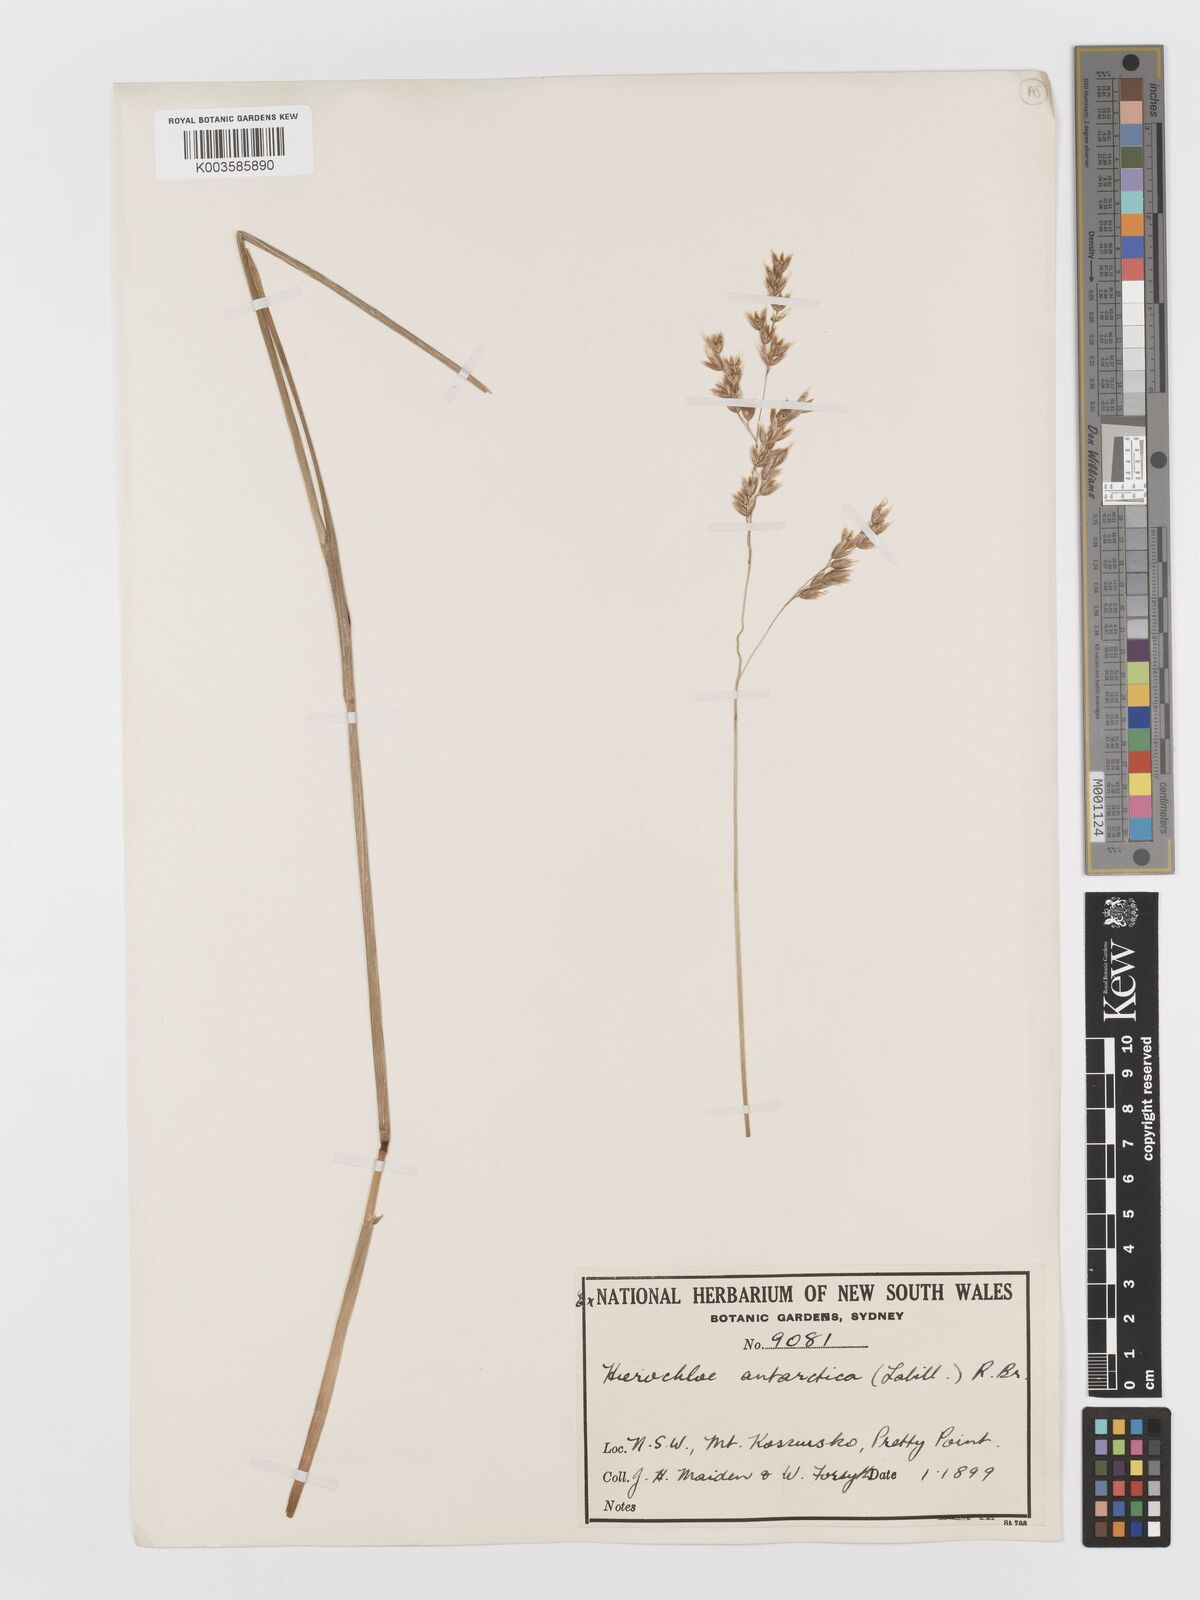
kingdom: Plantae
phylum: Tracheophyta
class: Liliopsida
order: Poales
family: Poaceae
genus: Anthoxanthum
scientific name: Anthoxanthum redolens
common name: Sweet holy grass
